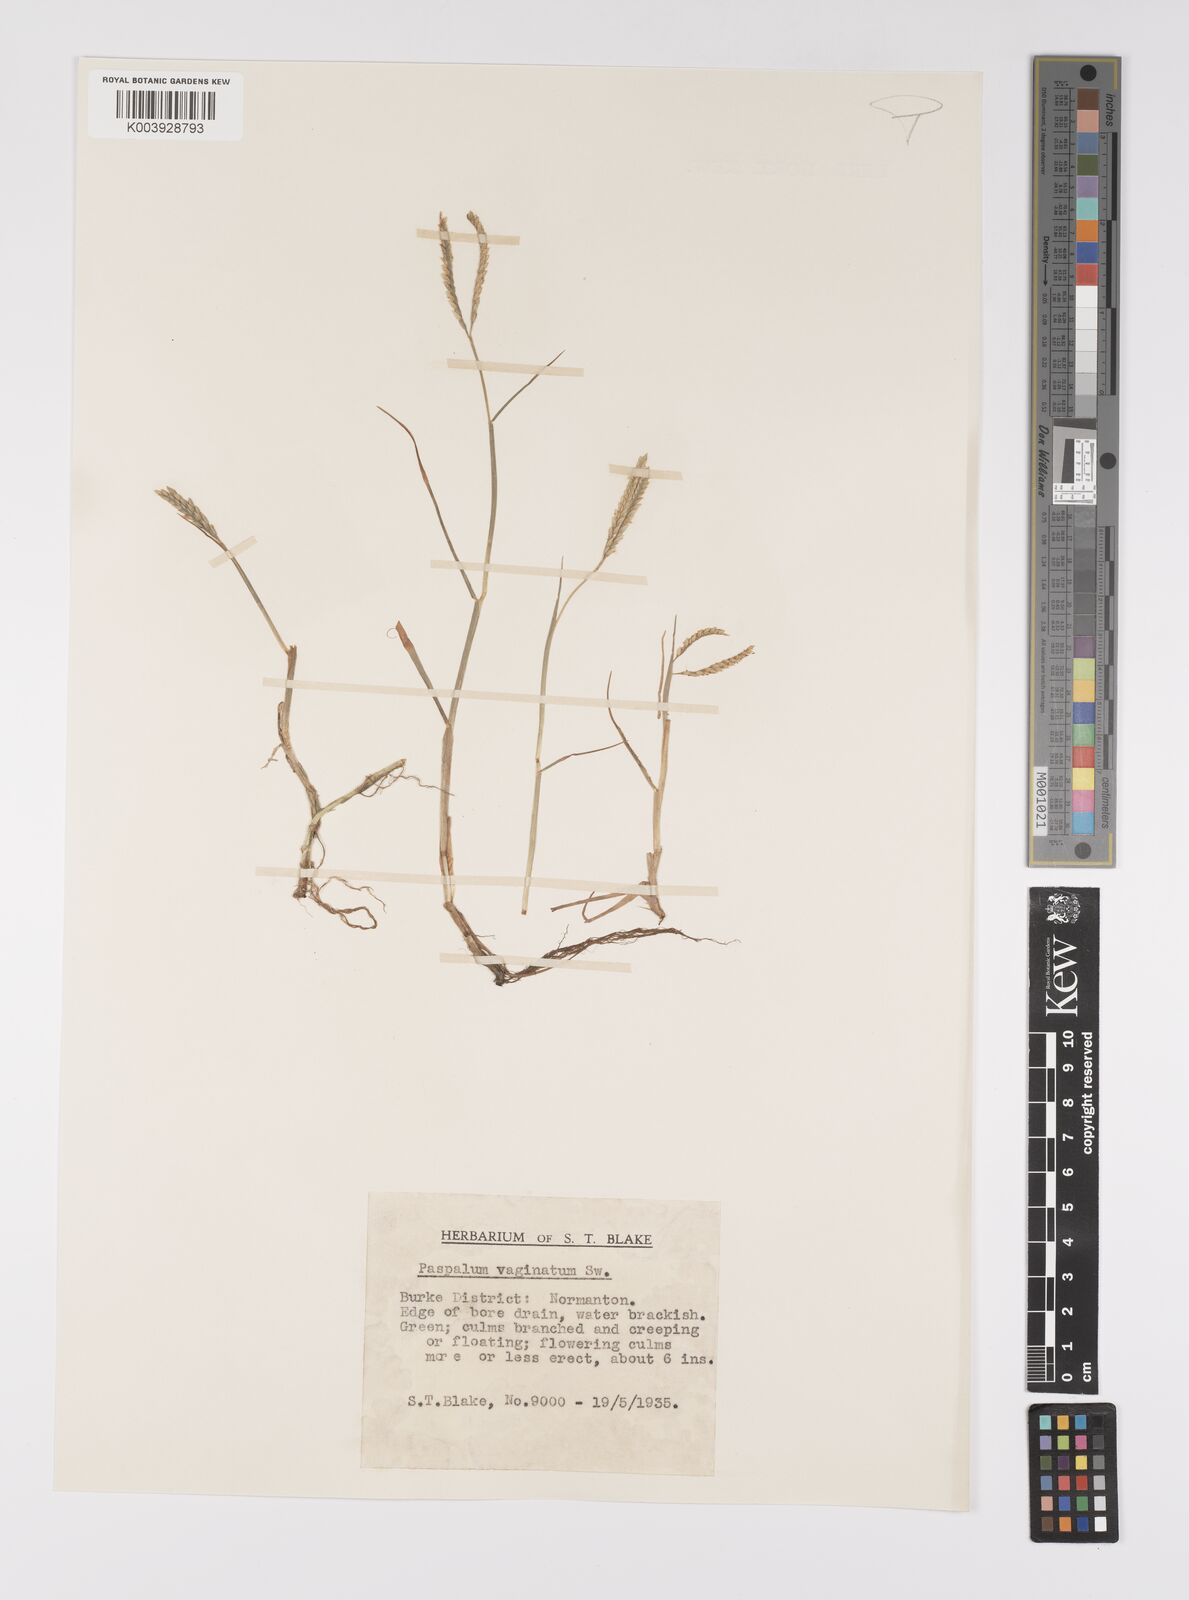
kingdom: Plantae
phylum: Tracheophyta
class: Liliopsida
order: Poales
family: Poaceae
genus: Paspalum
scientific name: Paspalum vaginatum
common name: Seashore paspalum
